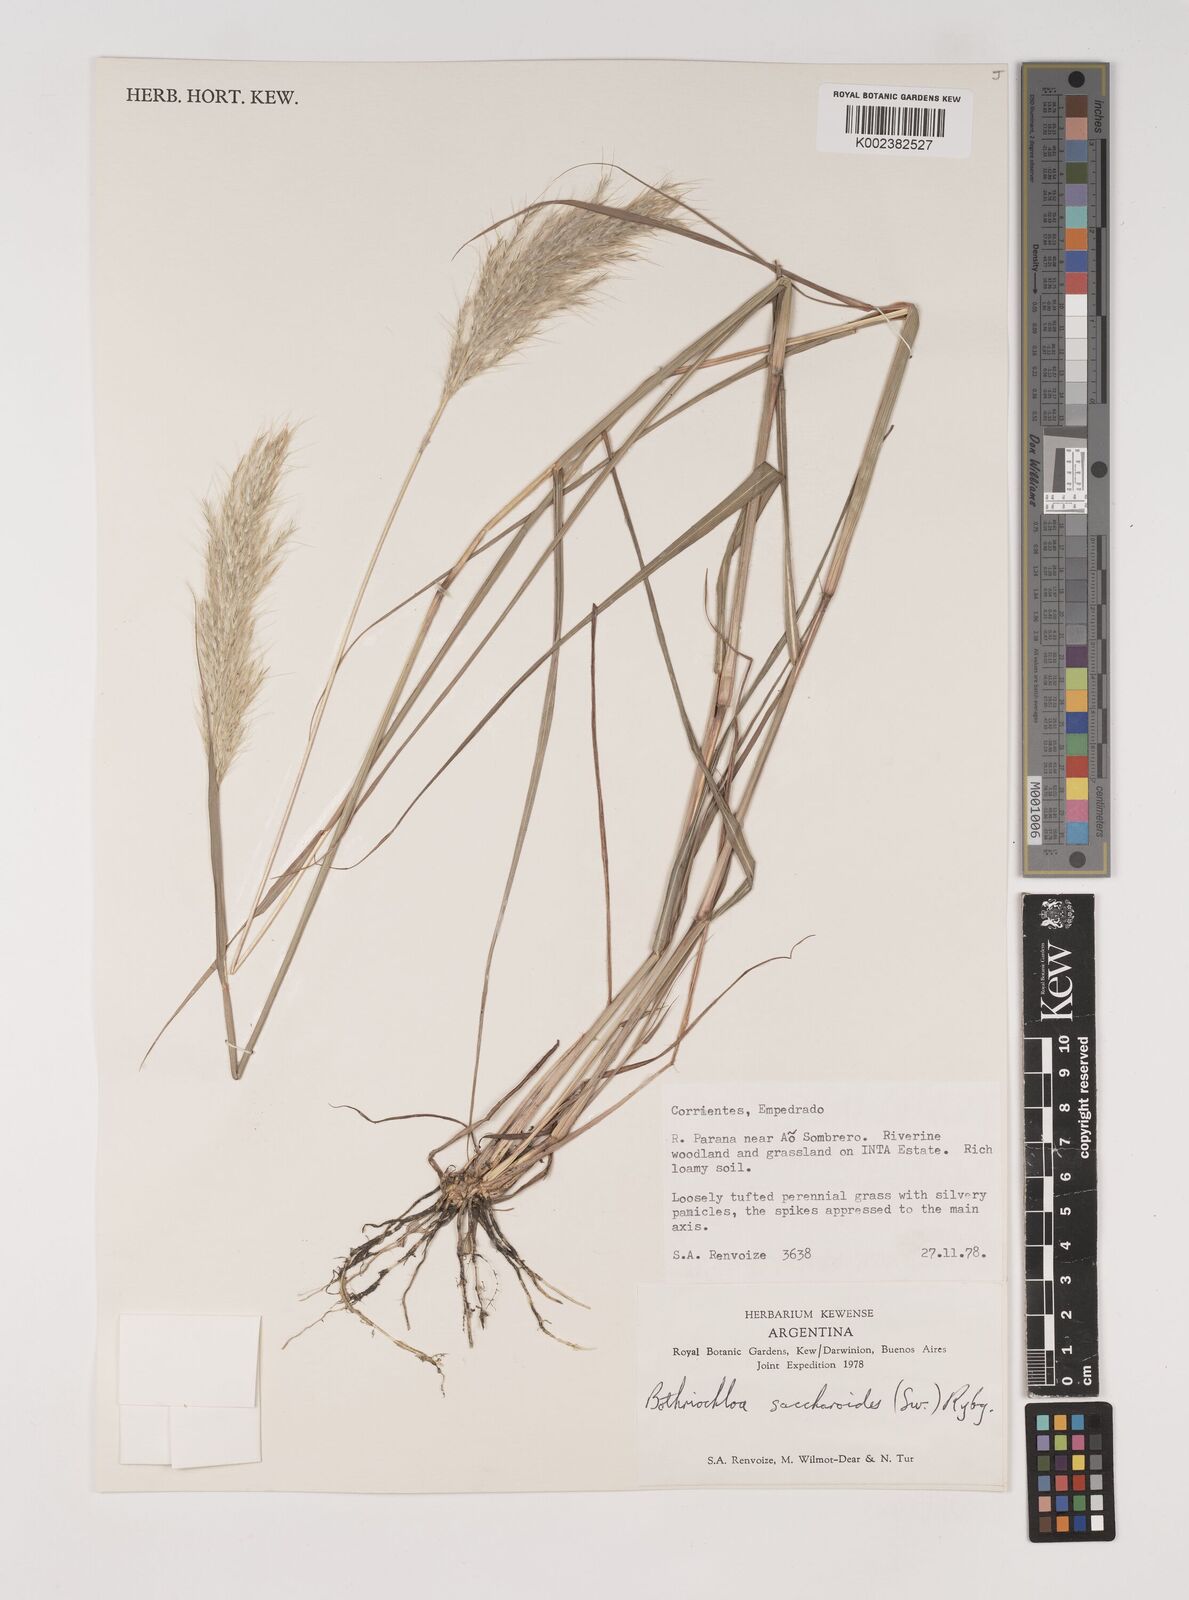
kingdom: Plantae
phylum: Tracheophyta
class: Liliopsida
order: Poales
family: Poaceae
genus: Bothriochloa
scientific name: Bothriochloa saccharoides
